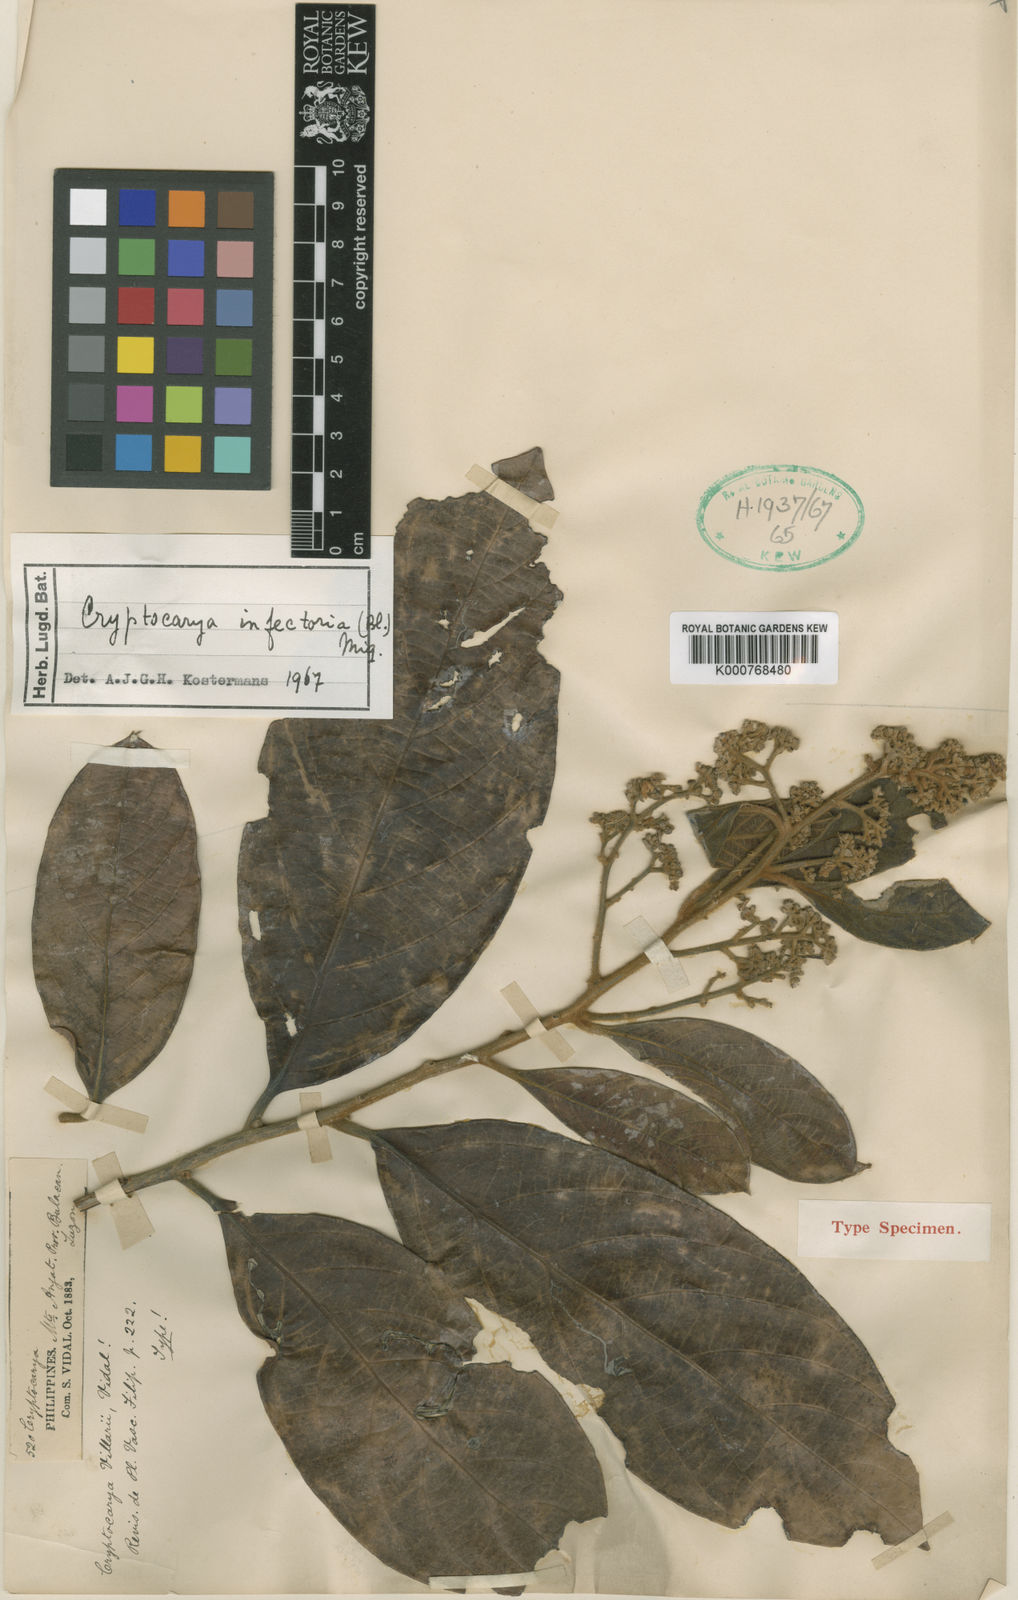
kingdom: Plantae
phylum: Tracheophyta
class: Magnoliopsida
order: Laurales
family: Lauraceae
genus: Cryptocarya
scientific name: Cryptocarya infectoria
